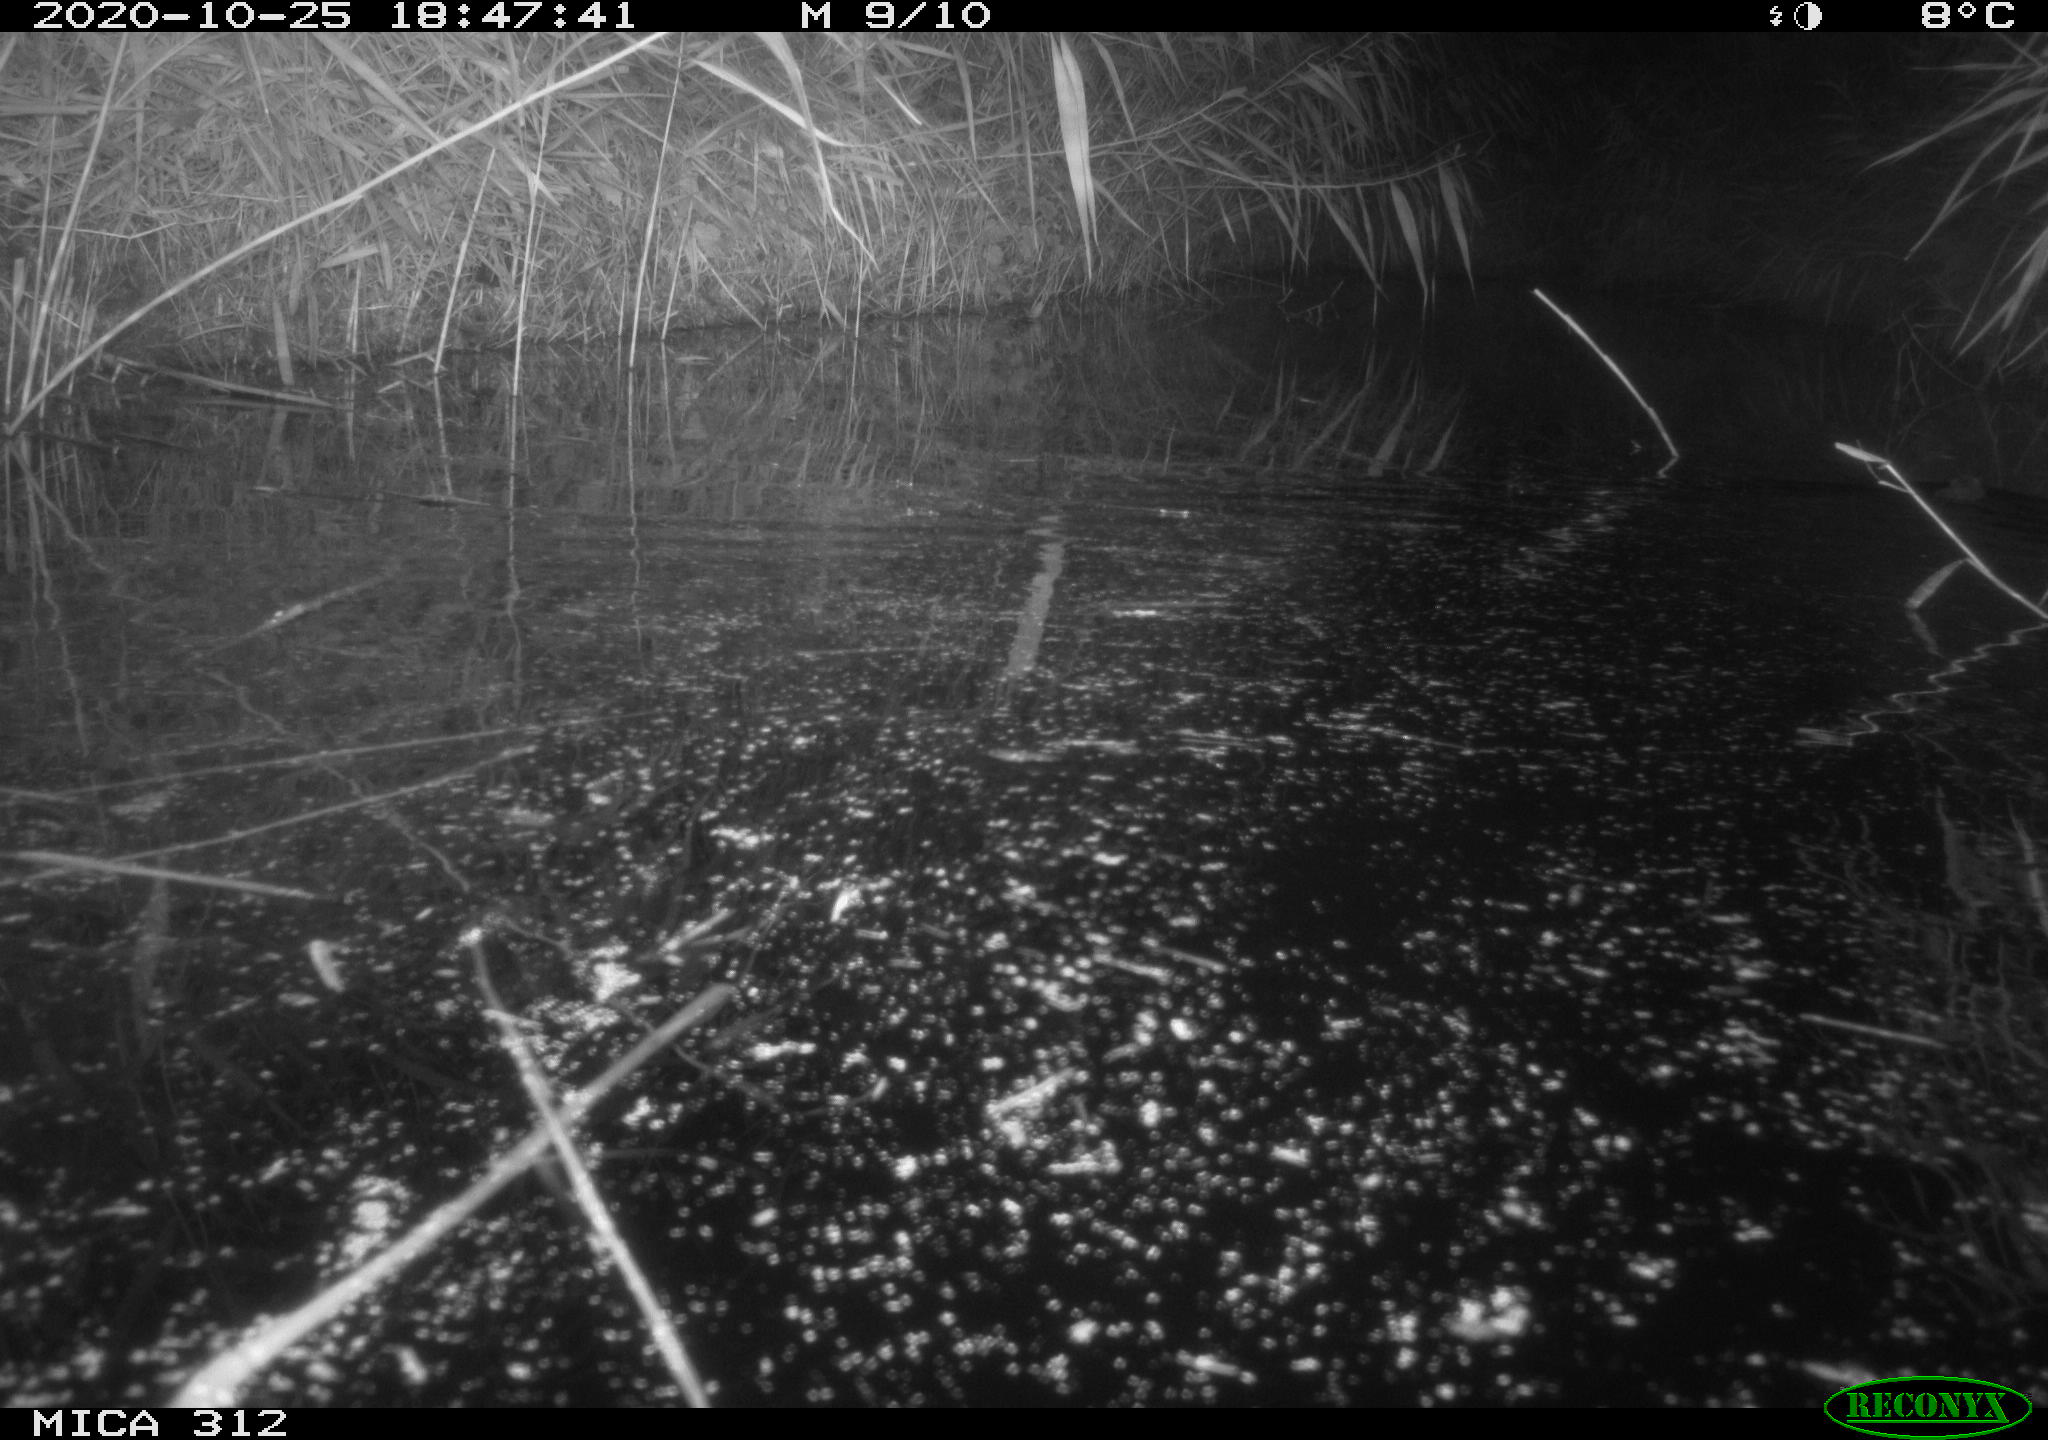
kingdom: Animalia
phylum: Chordata
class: Mammalia
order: Rodentia
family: Muridae
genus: Rattus
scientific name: Rattus norvegicus
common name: Brown rat
